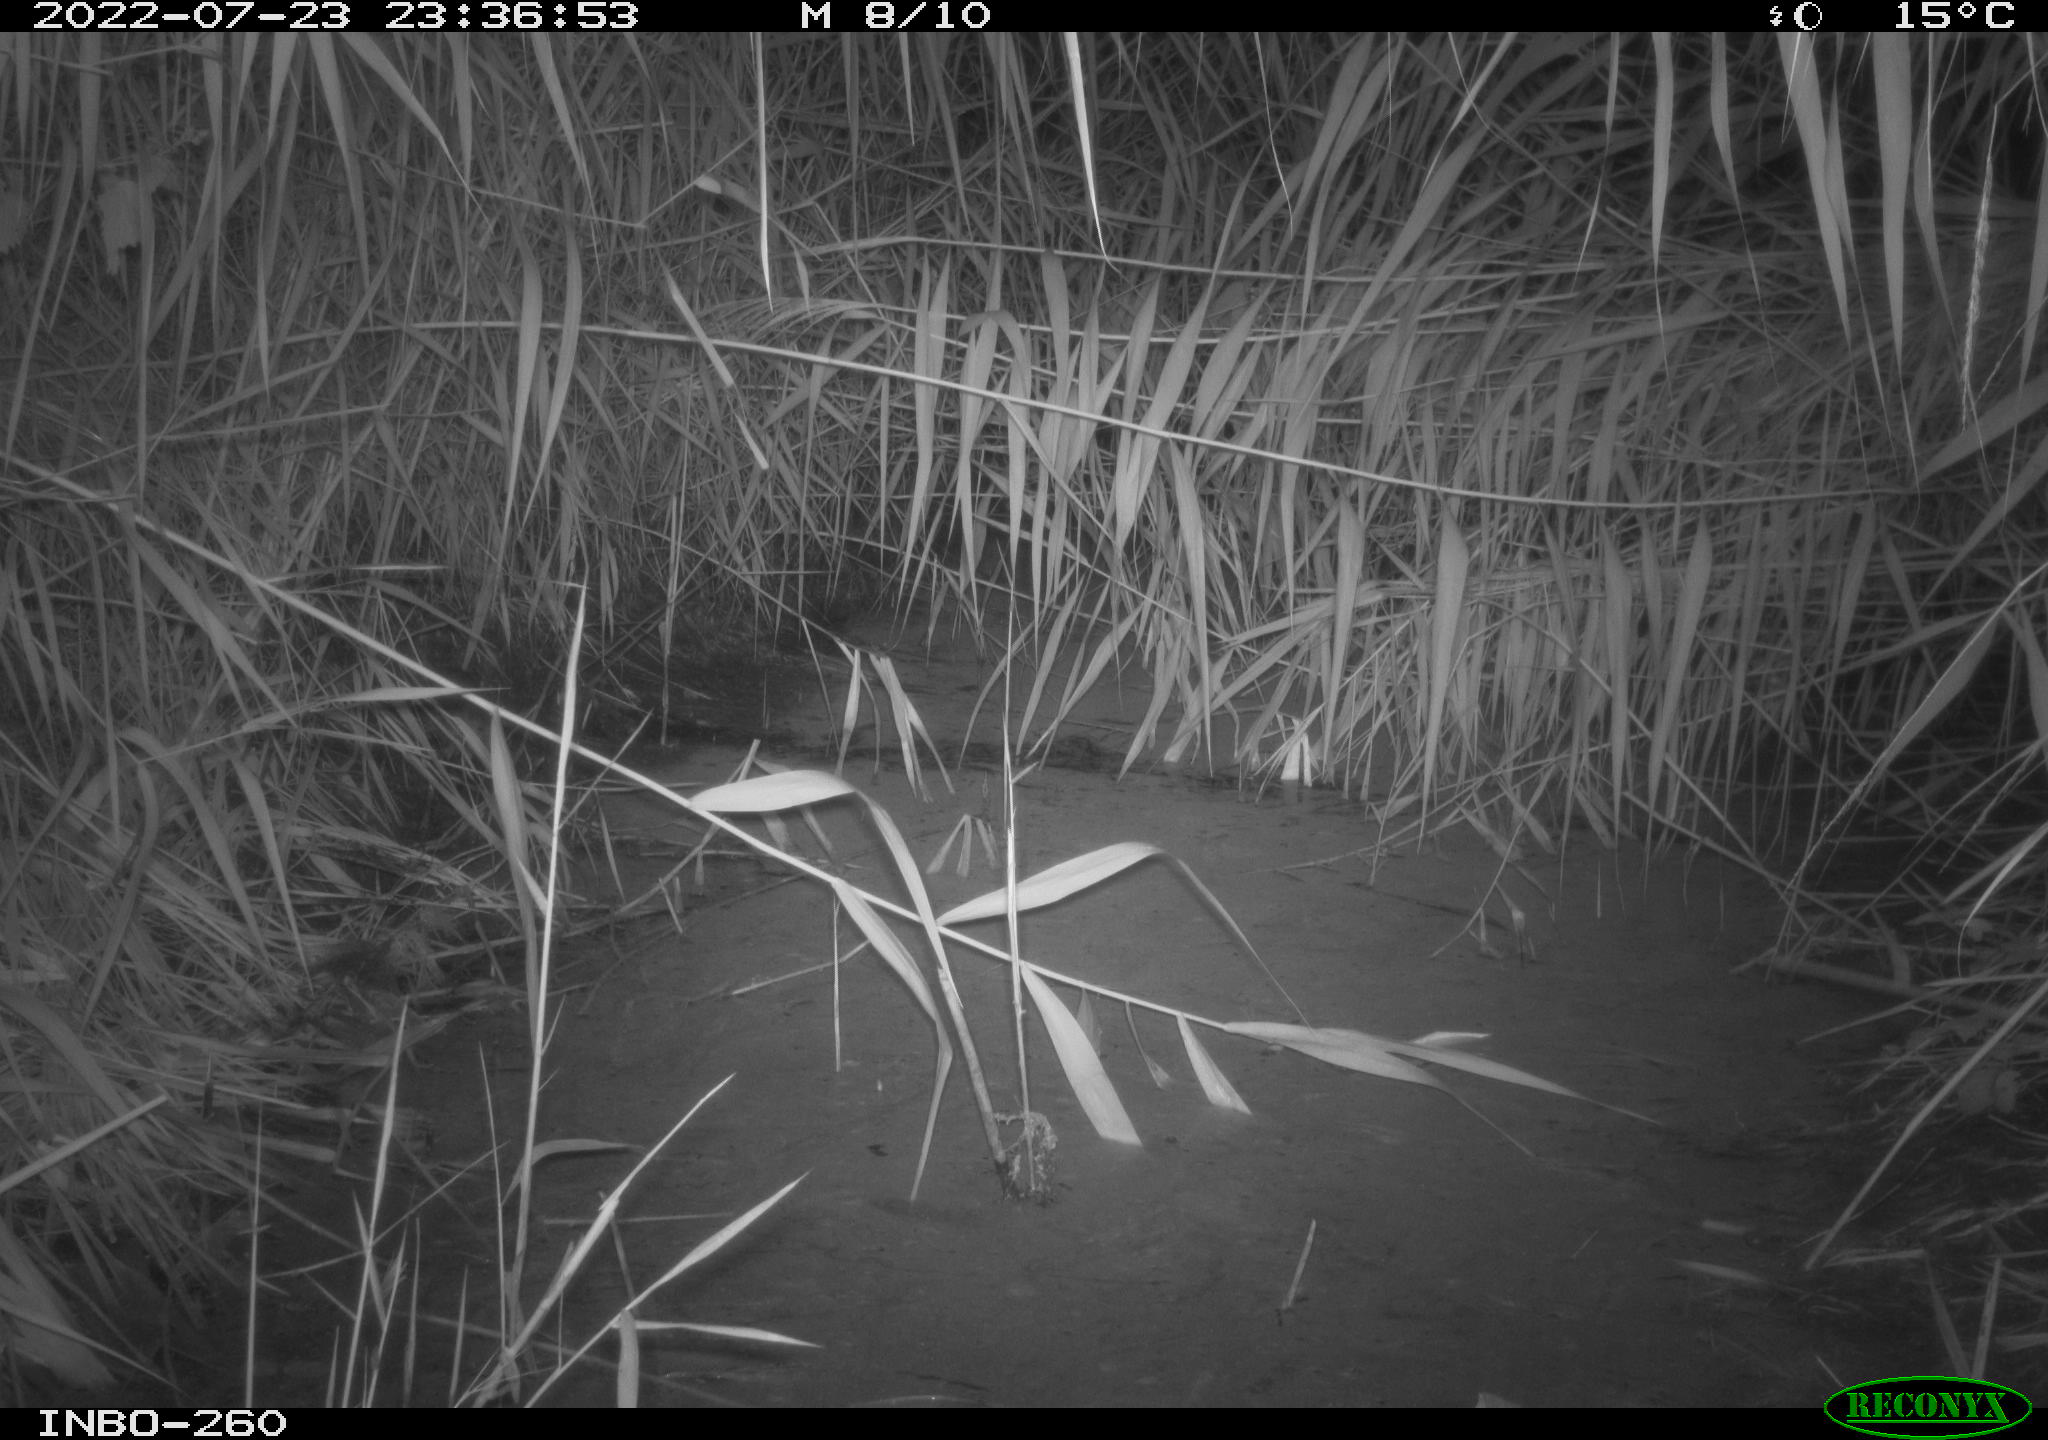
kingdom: Animalia
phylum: Chordata
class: Mammalia
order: Rodentia
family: Muridae
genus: Rattus
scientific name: Rattus norvegicus
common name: Brown rat
